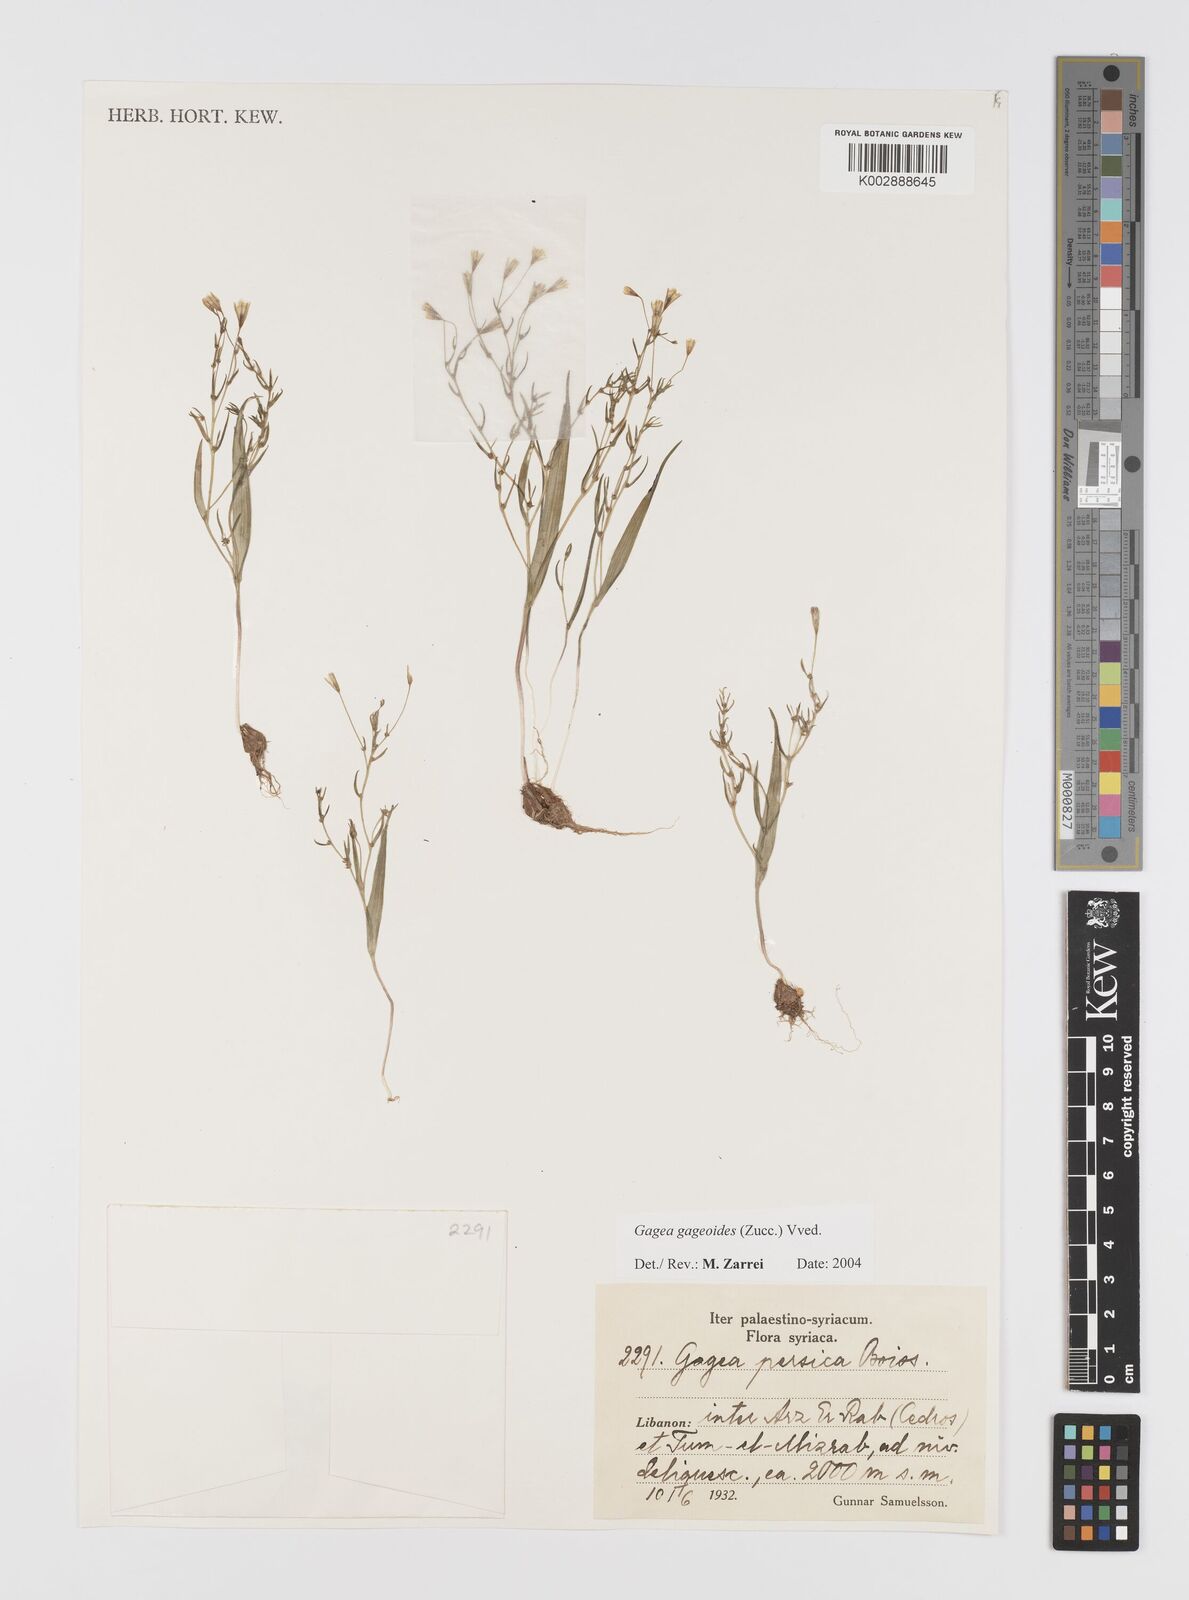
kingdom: Plantae
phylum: Tracheophyta
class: Liliopsida
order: Liliales
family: Liliaceae
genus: Gagea
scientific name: Gagea gageoides
